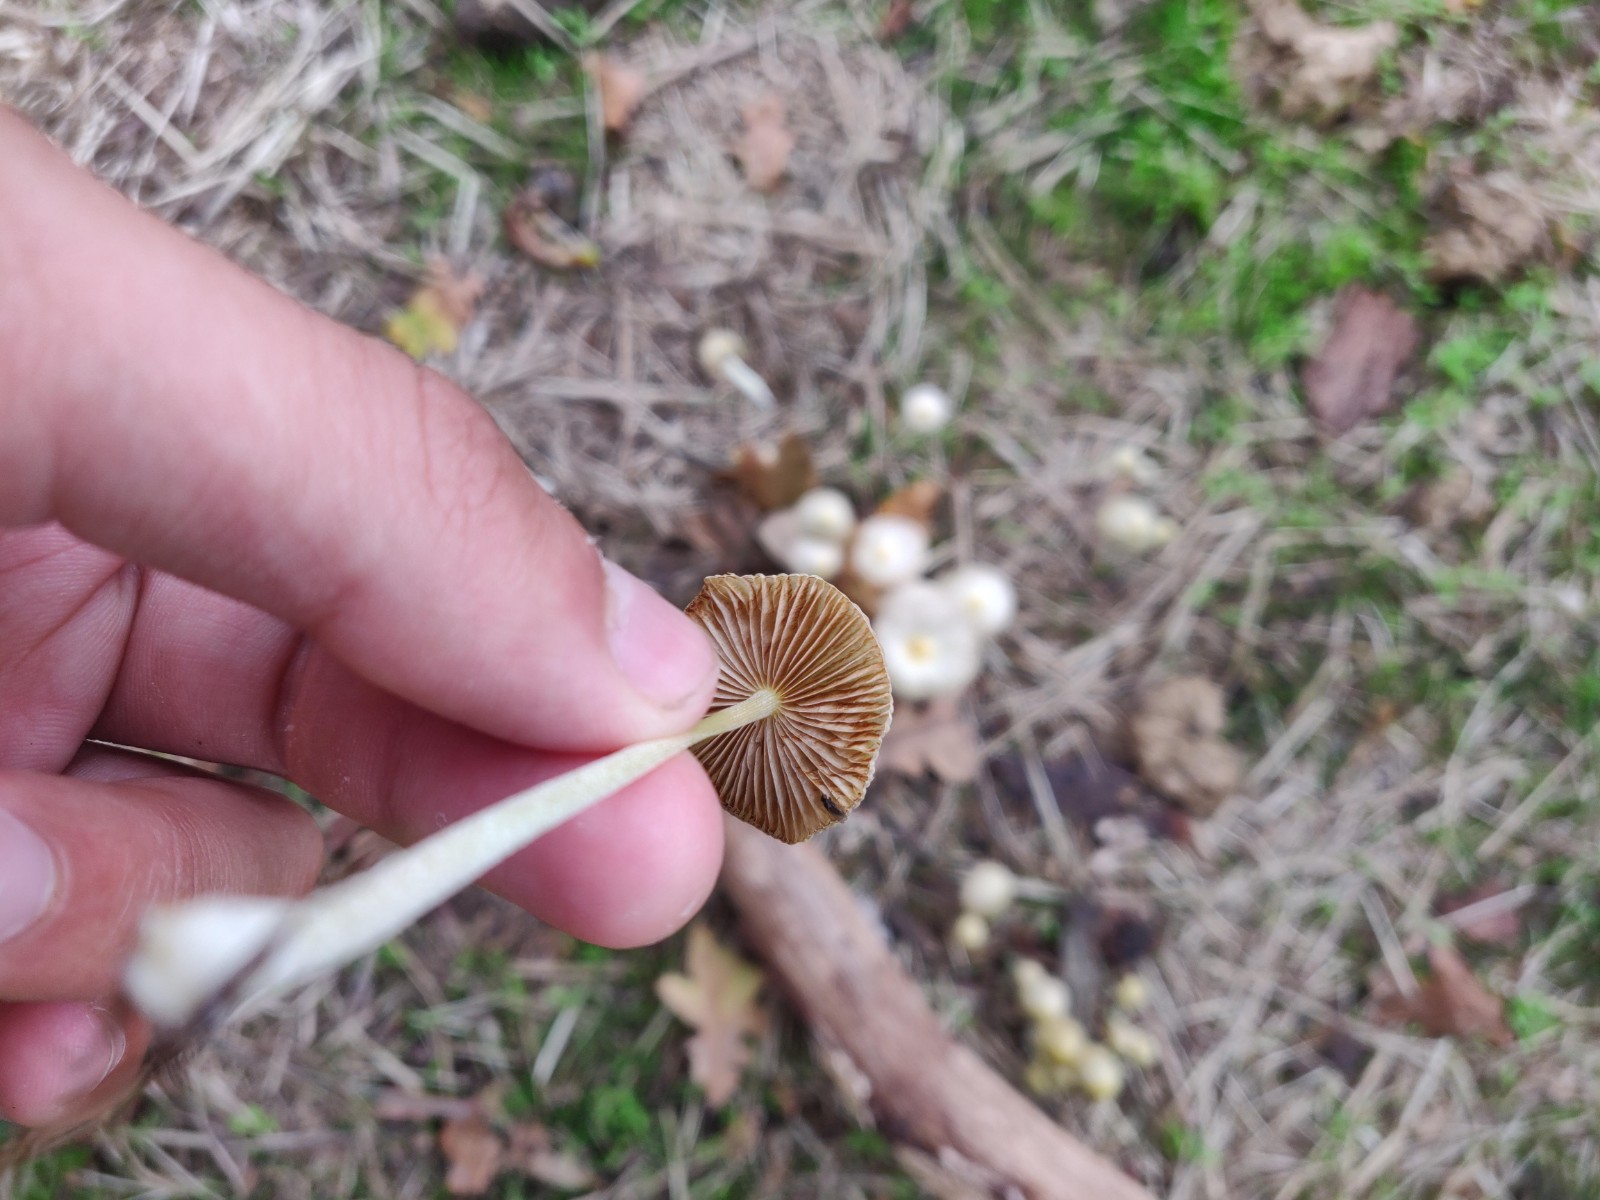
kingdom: Fungi
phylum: Basidiomycota
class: Agaricomycetes
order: Agaricales
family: Bolbitiaceae
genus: Bolbitius
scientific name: Bolbitius titubans
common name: almindelig gulhat
